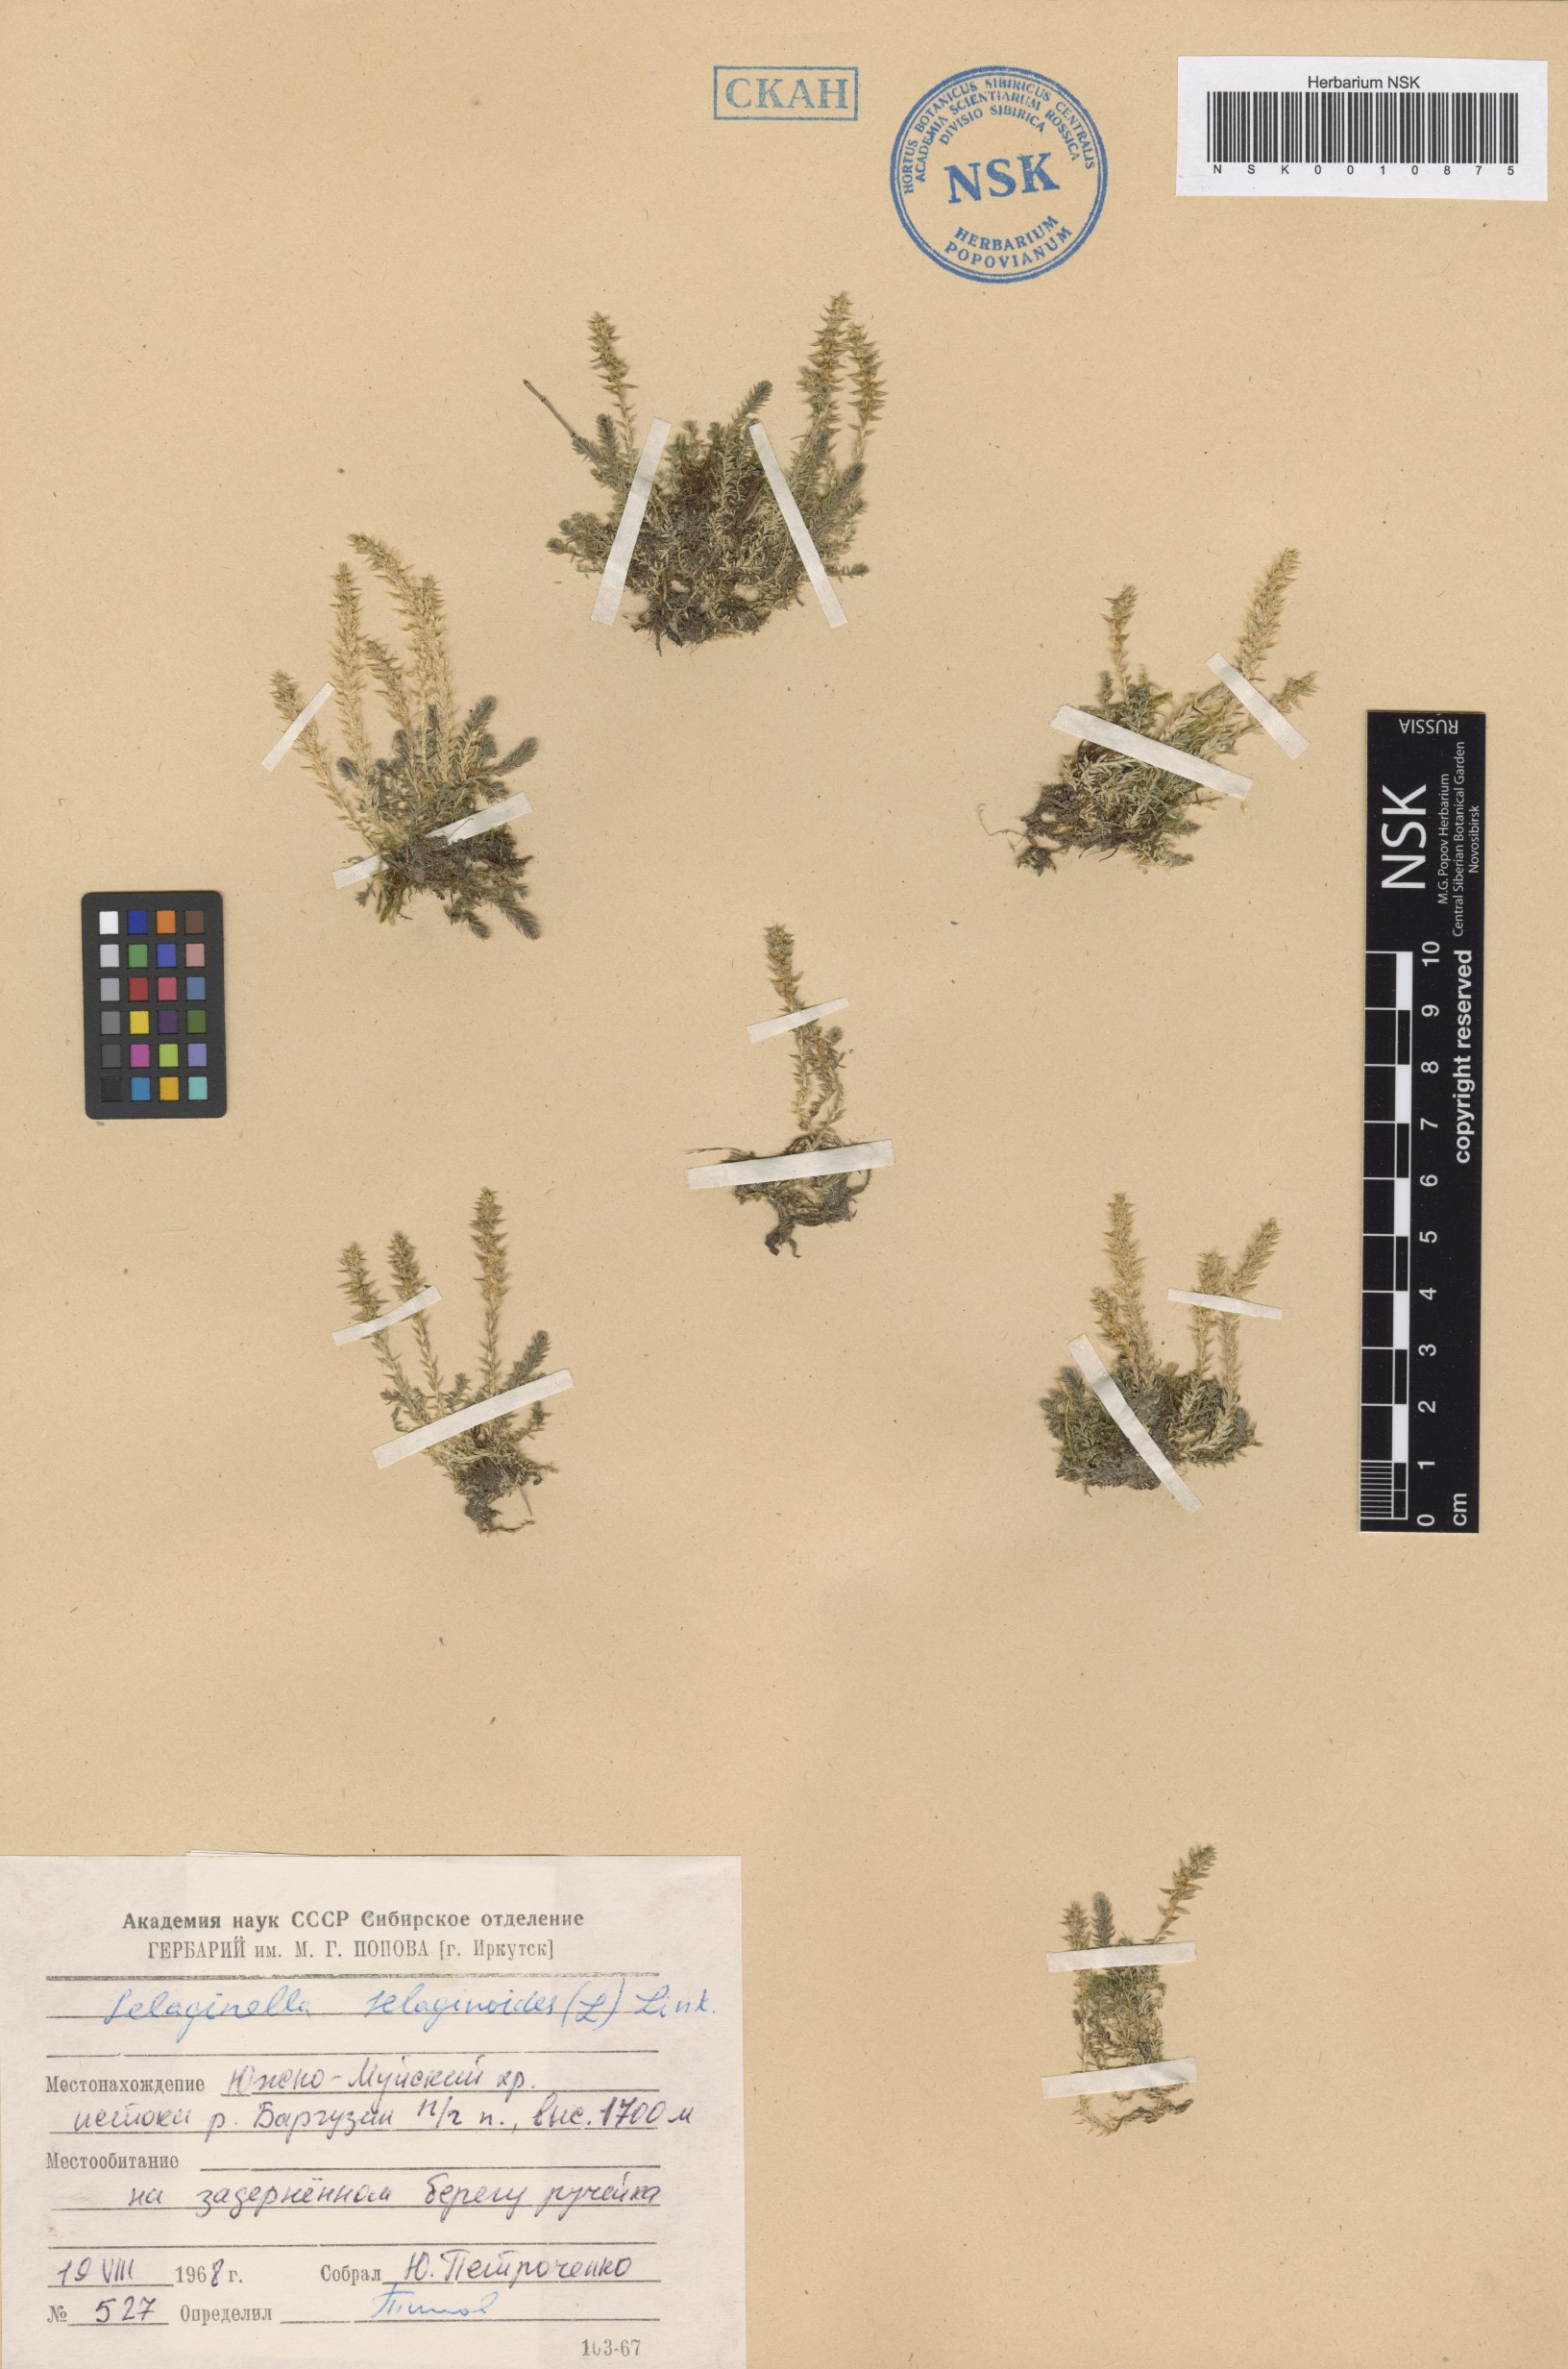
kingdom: Plantae
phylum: Tracheophyta
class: Lycopodiopsida
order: Selaginellales
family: Selaginellaceae
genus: Selaginella
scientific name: Selaginella selaginoides
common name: Prickly mountain-moss
